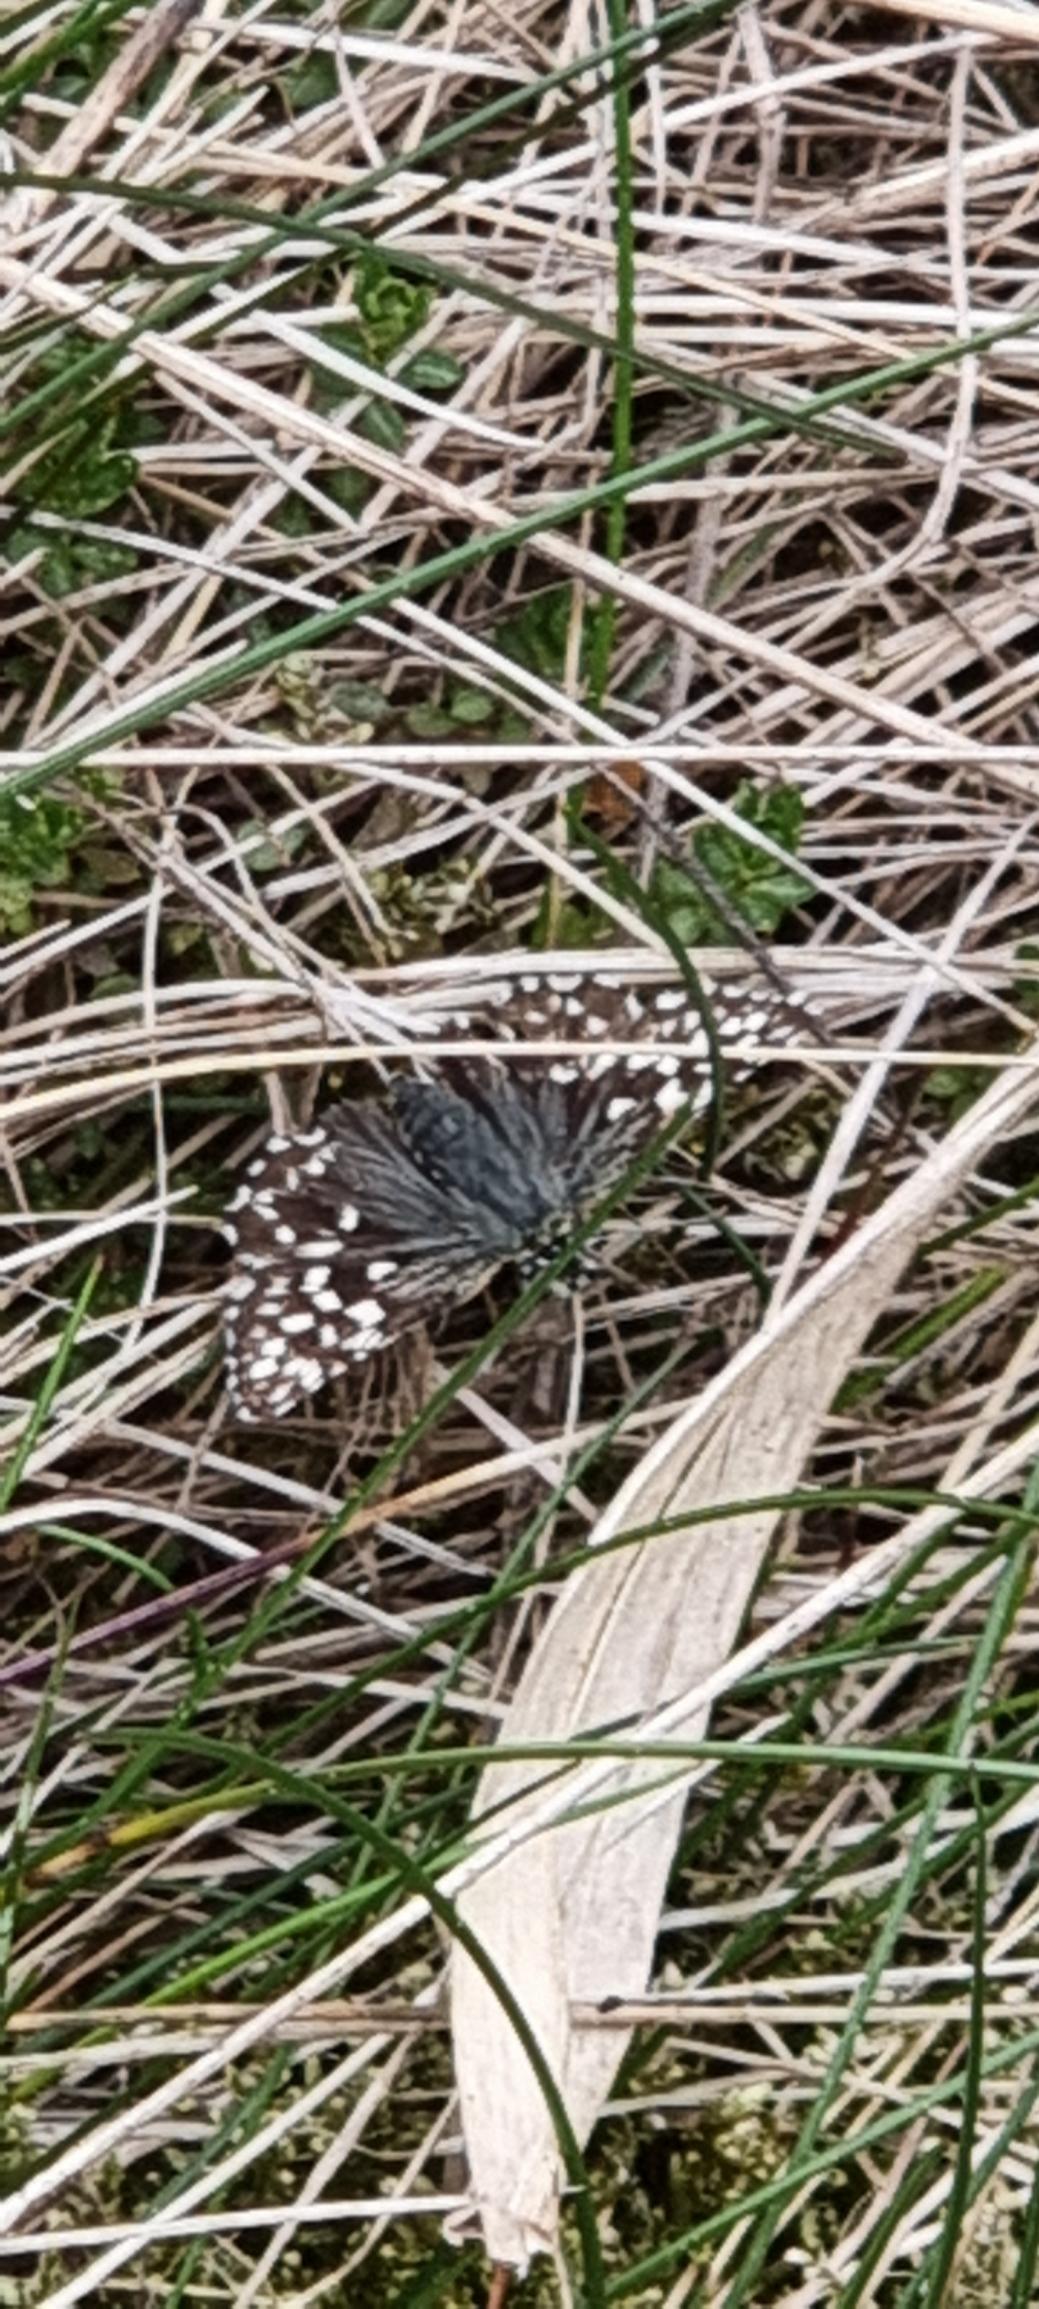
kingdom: Animalia
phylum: Arthropoda
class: Insecta
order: Lepidoptera
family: Hesperiidae
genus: Pyrgus
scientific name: Pyrgus malvae
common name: Spættet bredpande
